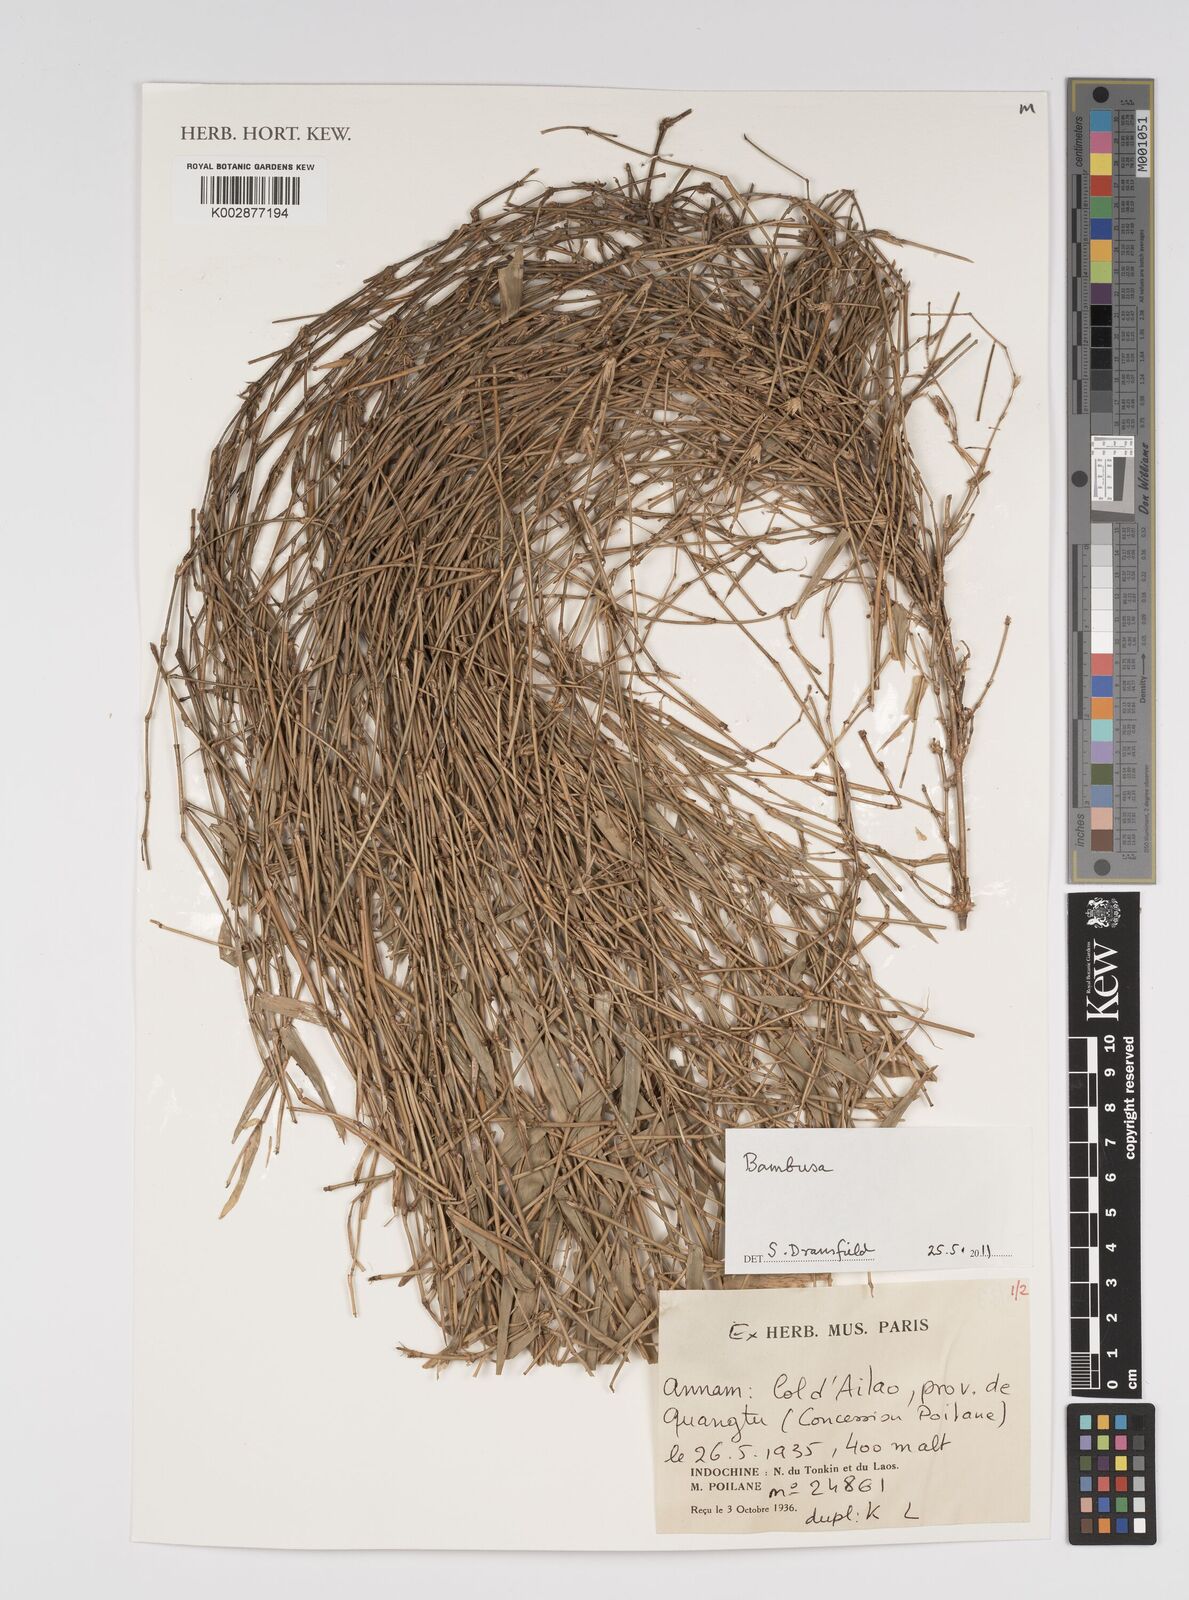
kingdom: Plantae
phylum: Tracheophyta
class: Liliopsida
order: Poales
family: Poaceae
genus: Bambusa
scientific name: Bambusa
